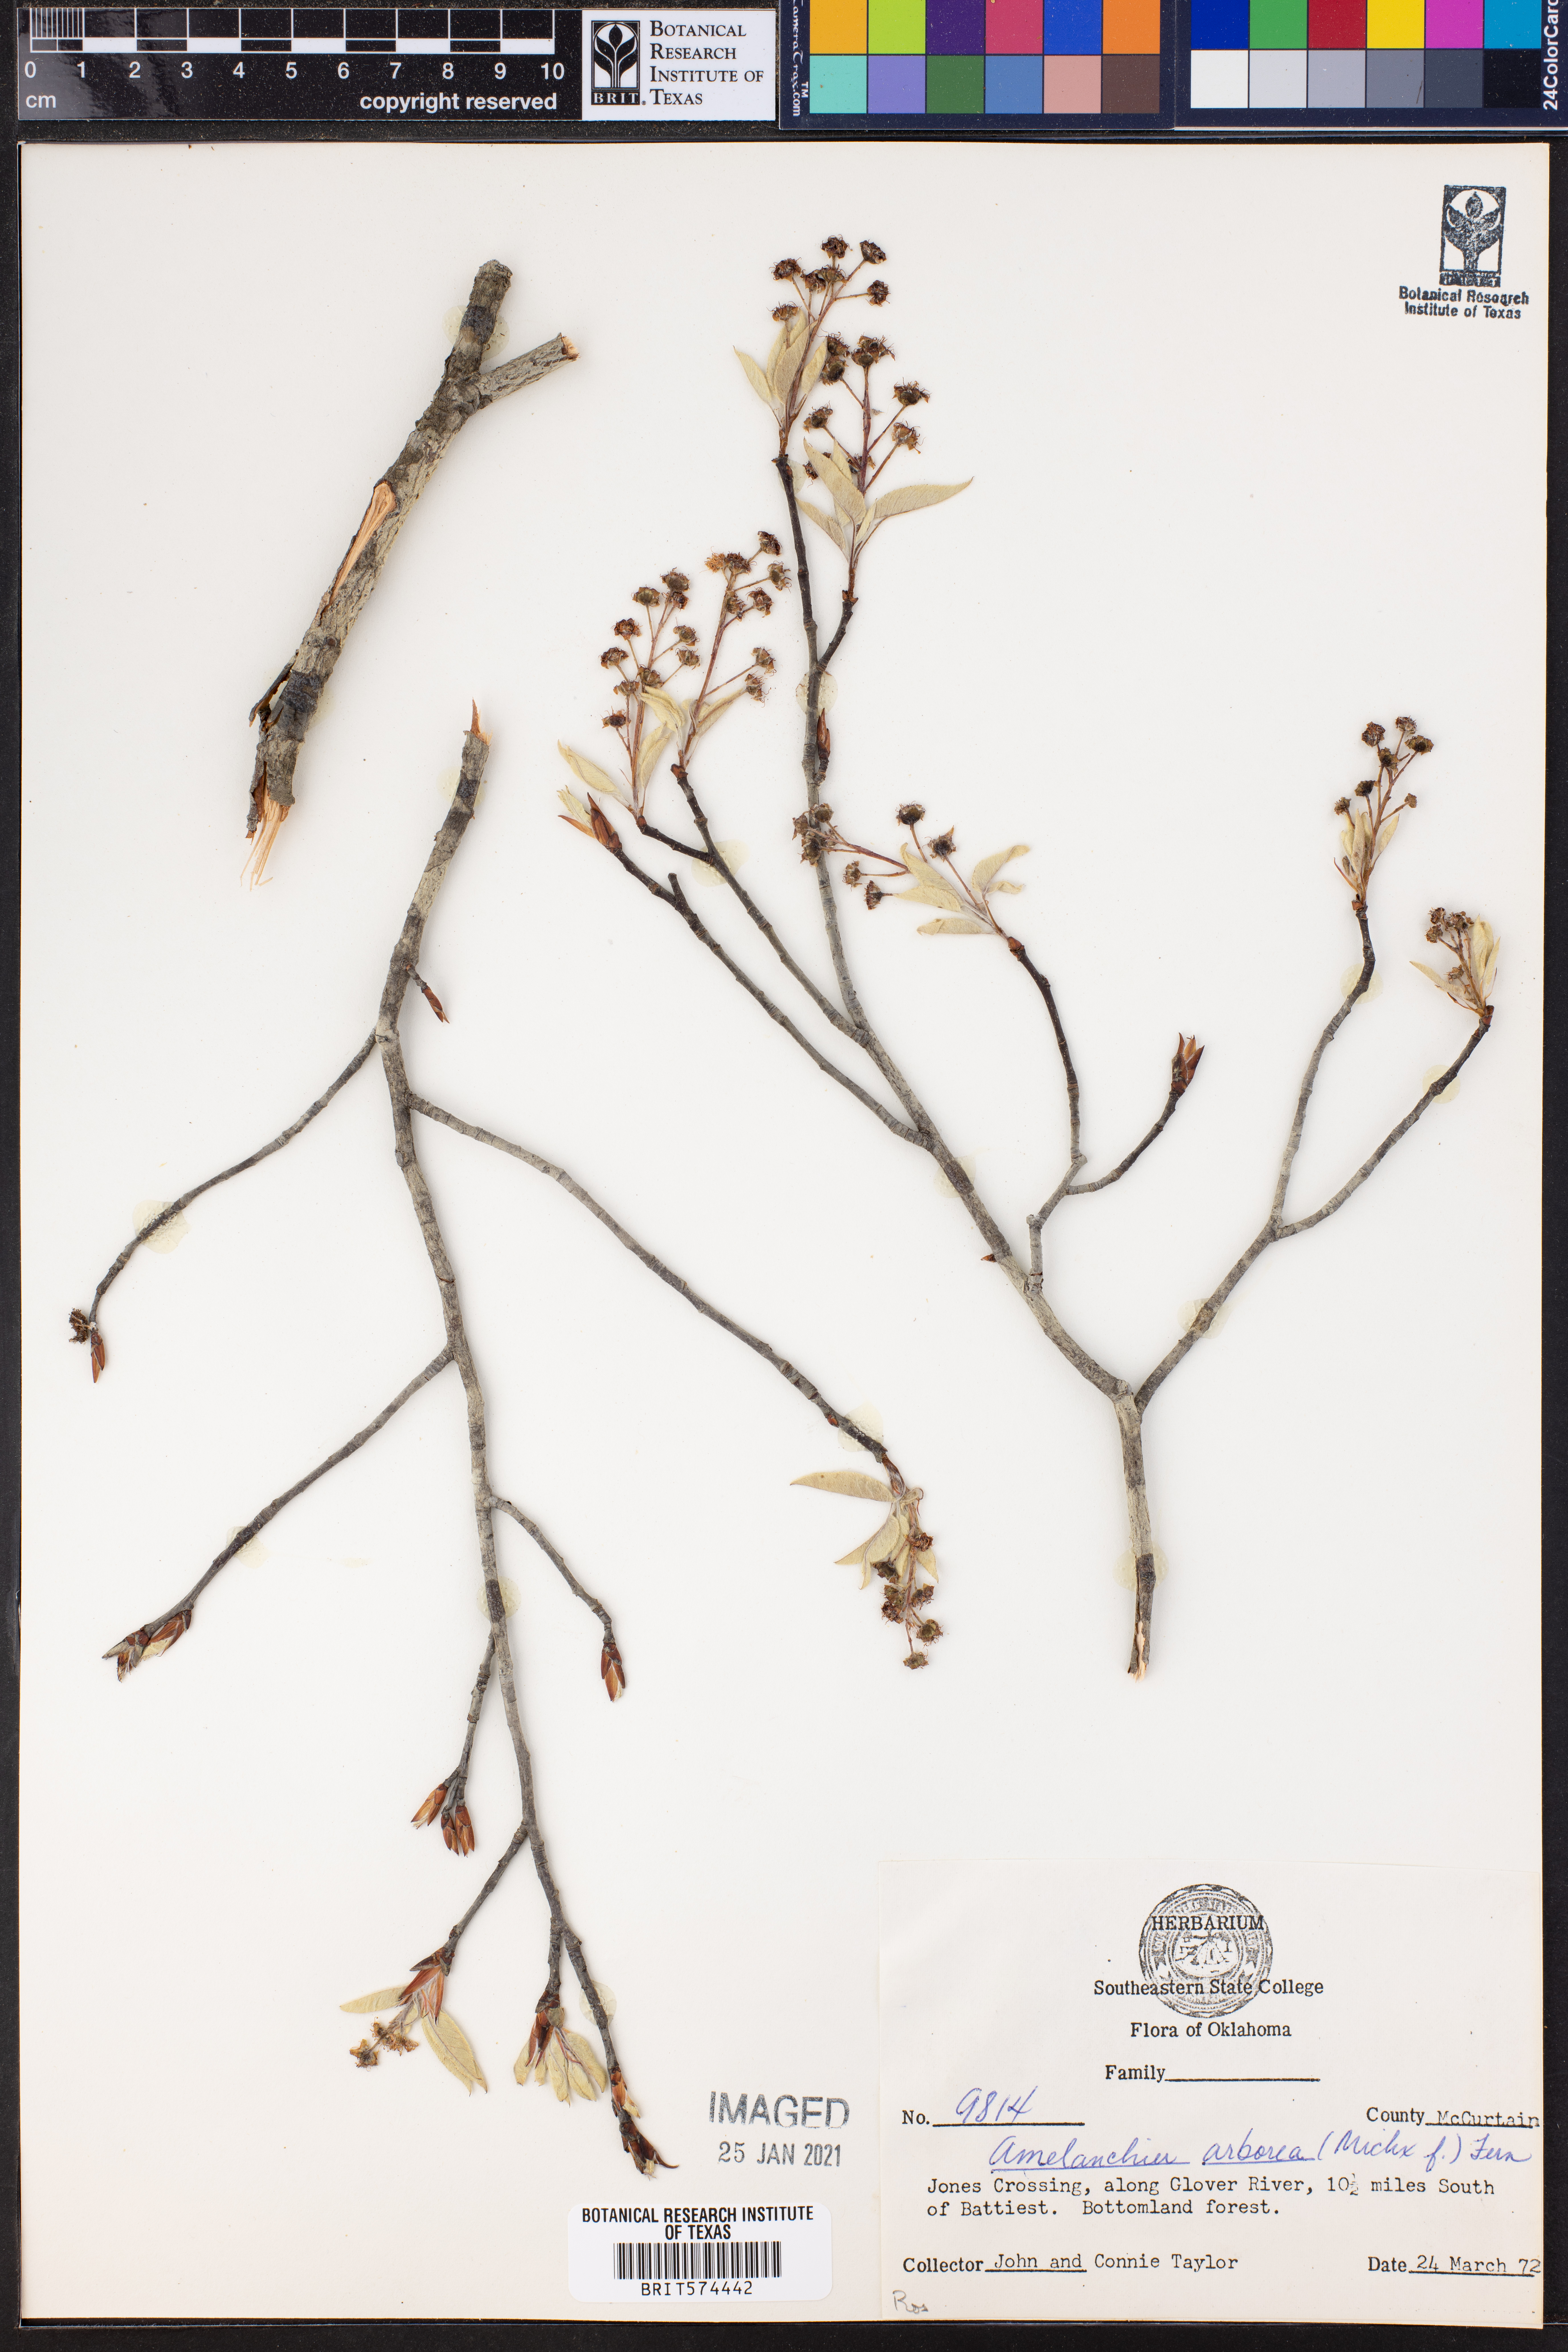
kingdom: Plantae
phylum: Tracheophyta
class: Magnoliopsida
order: Rosales
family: Rosaceae
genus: Amelanchier
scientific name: Amelanchier arborea
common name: Downy serviceberry
